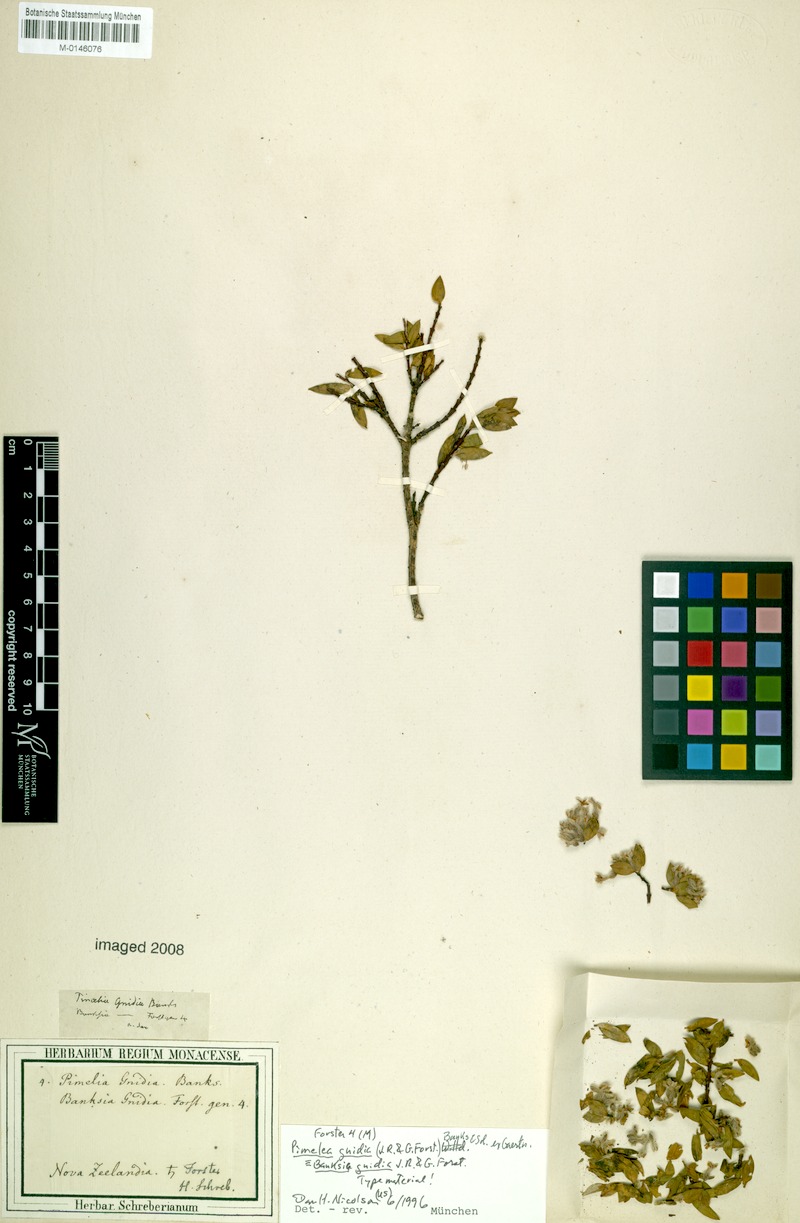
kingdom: Plantae
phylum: Tracheophyta
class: Magnoliopsida
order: Malvales
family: Thymelaeaceae
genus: Pimelea
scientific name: Pimelea gnidia
